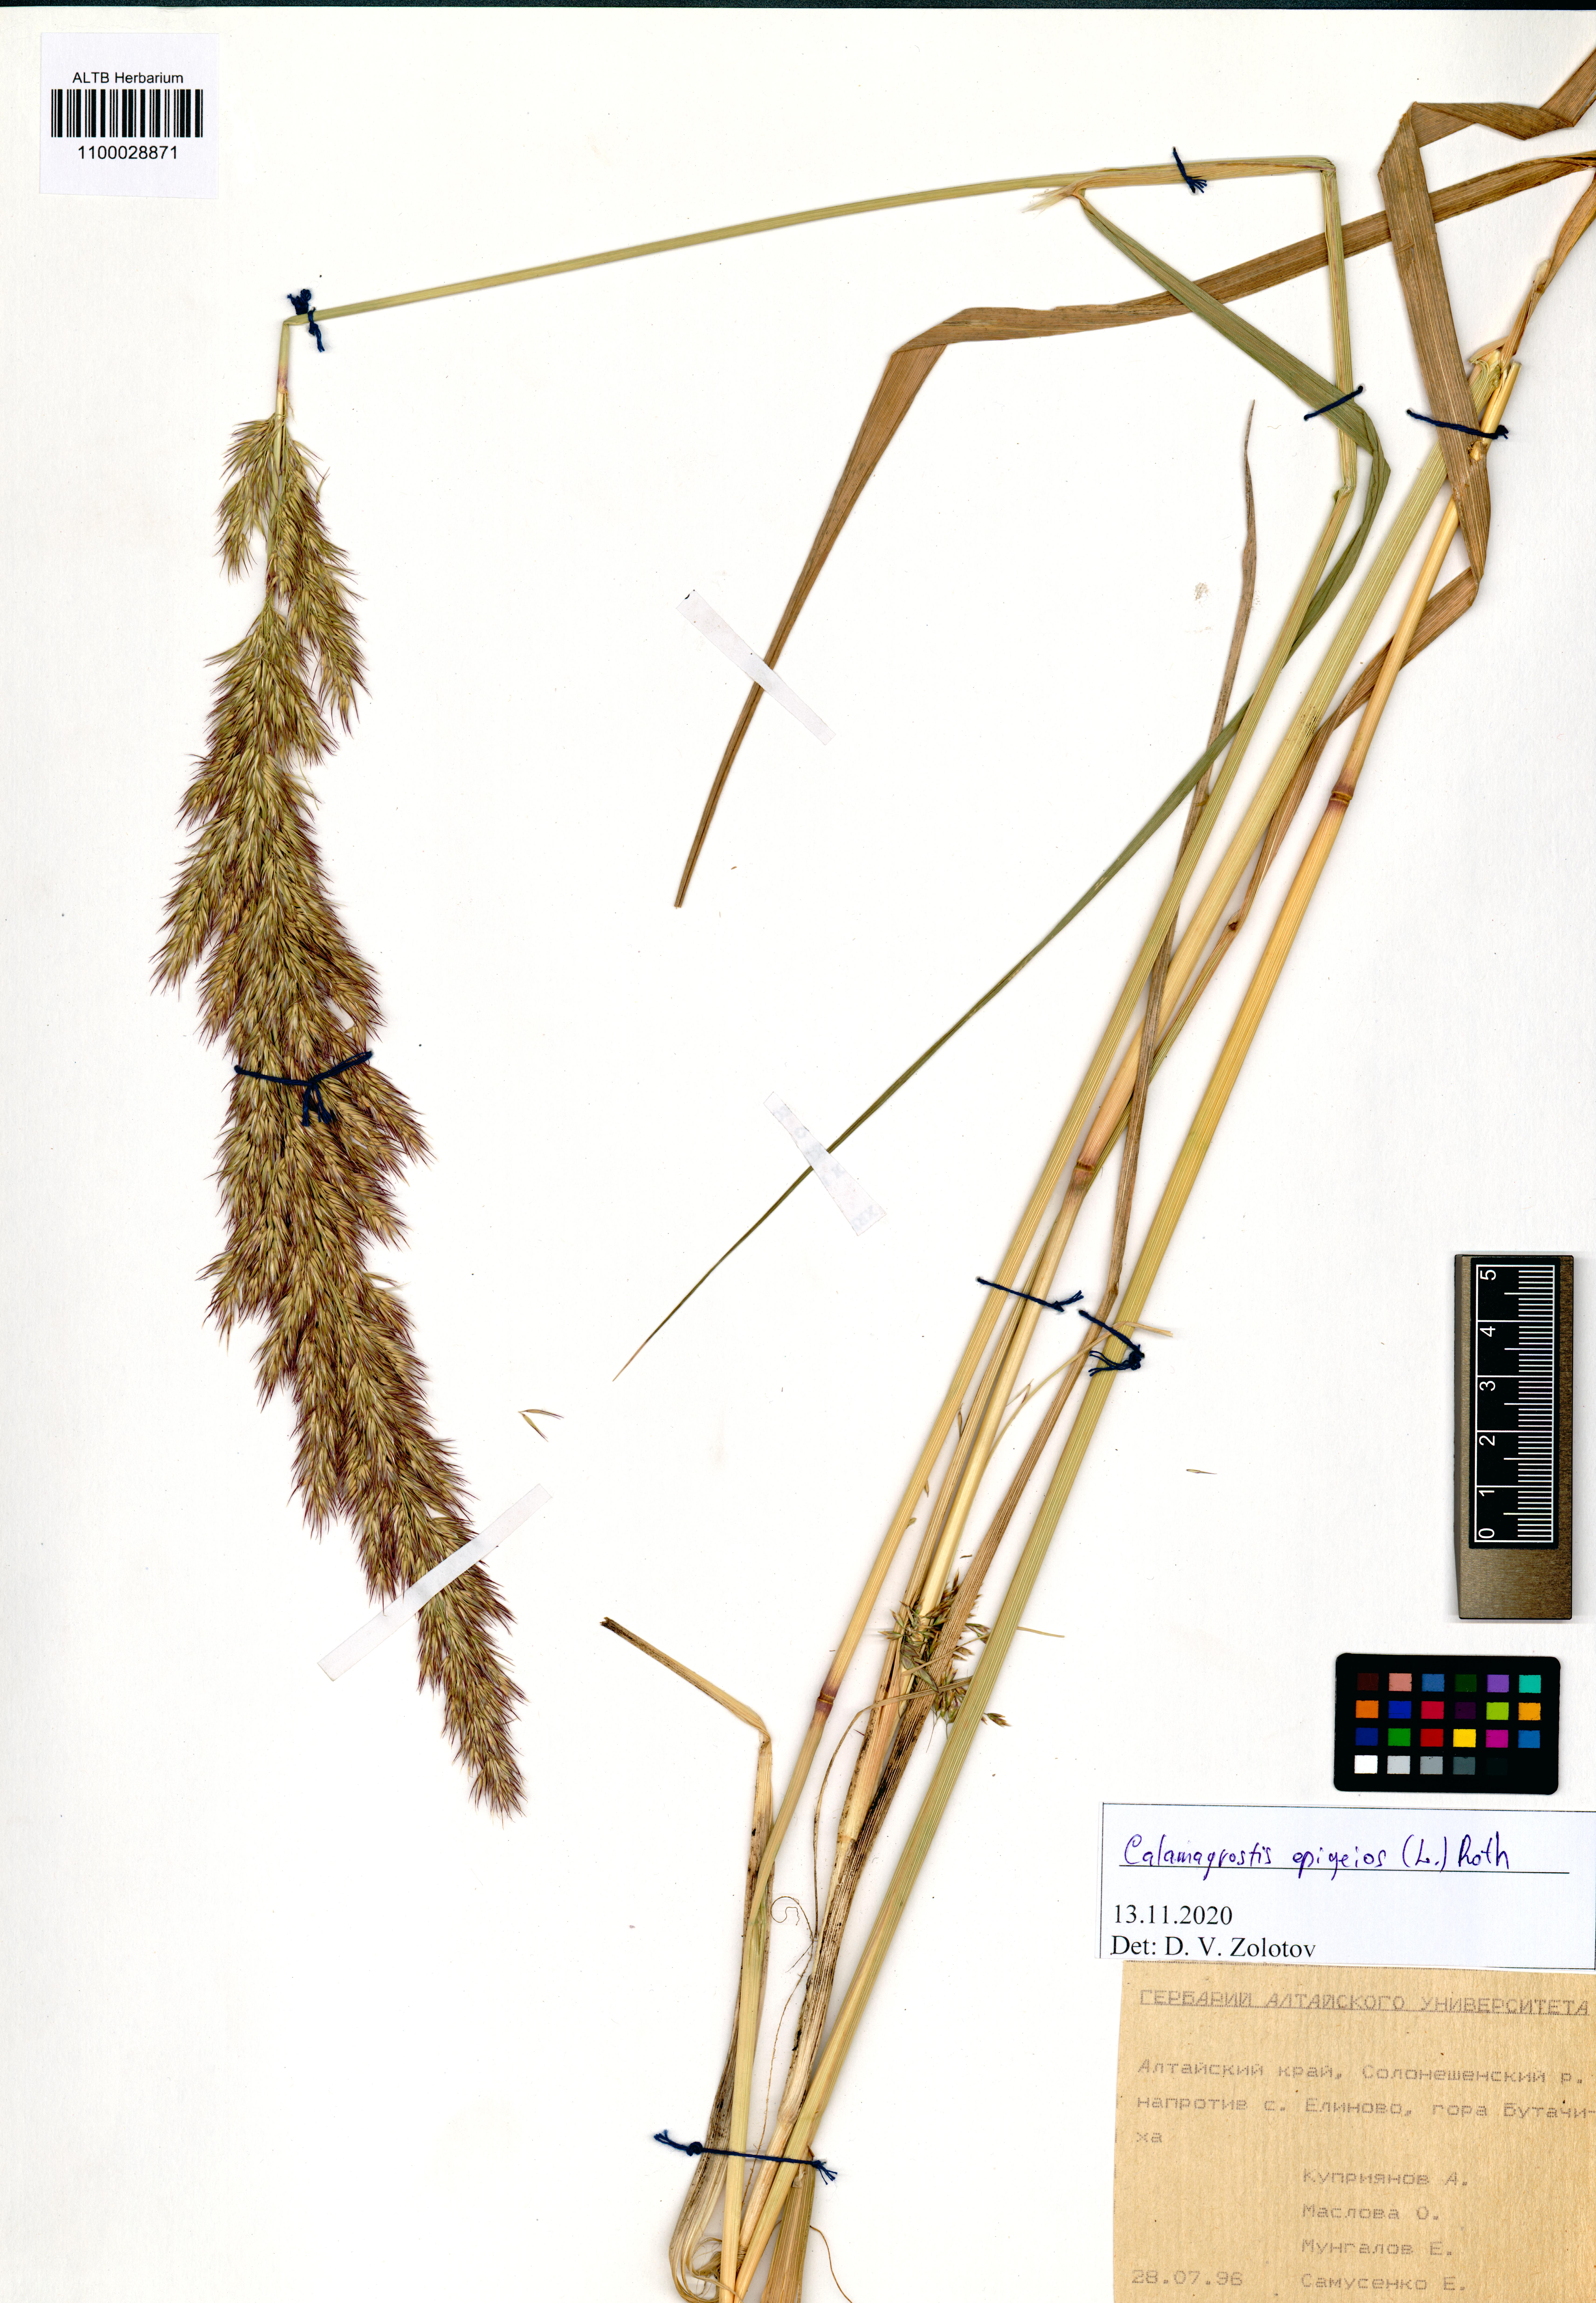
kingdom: Plantae
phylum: Tracheophyta
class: Liliopsida
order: Poales
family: Poaceae
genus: Calamagrostis
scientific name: Calamagrostis epigejos
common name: Wood small-reed
